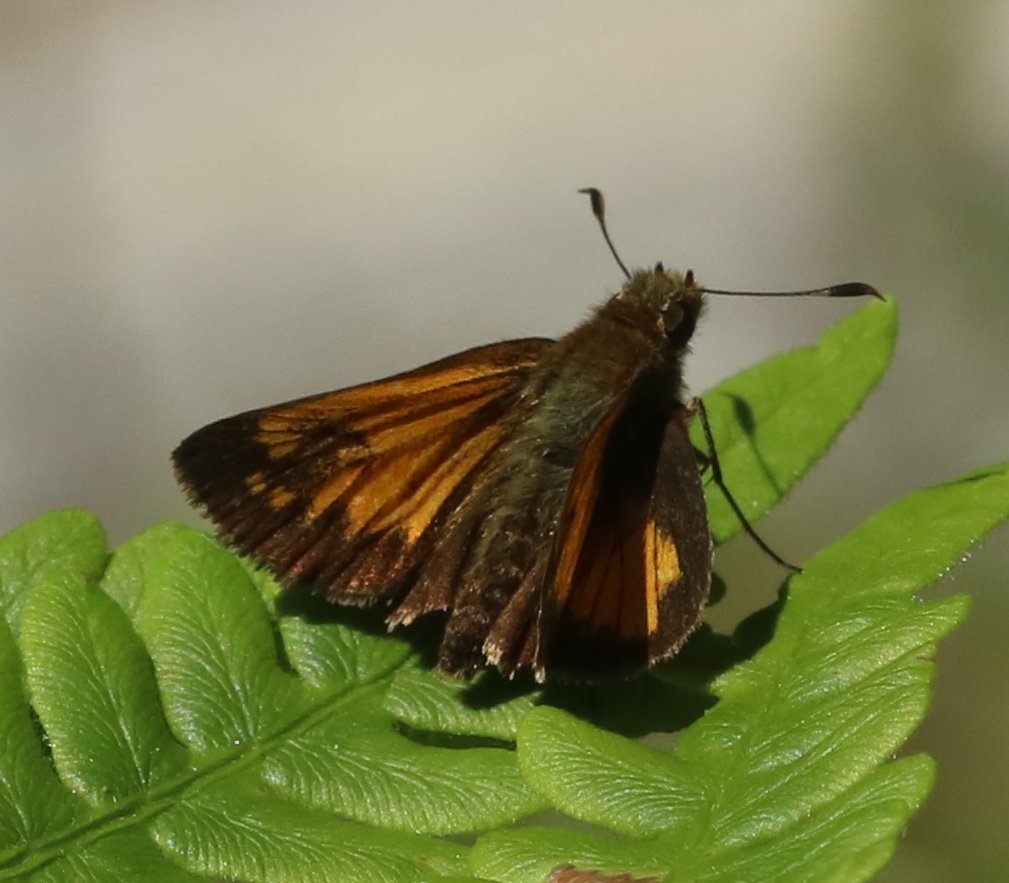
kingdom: Animalia
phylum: Arthropoda
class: Insecta
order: Lepidoptera
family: Hesperiidae
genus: Lon
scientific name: Lon hobomok
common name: Hobomok Skipper
